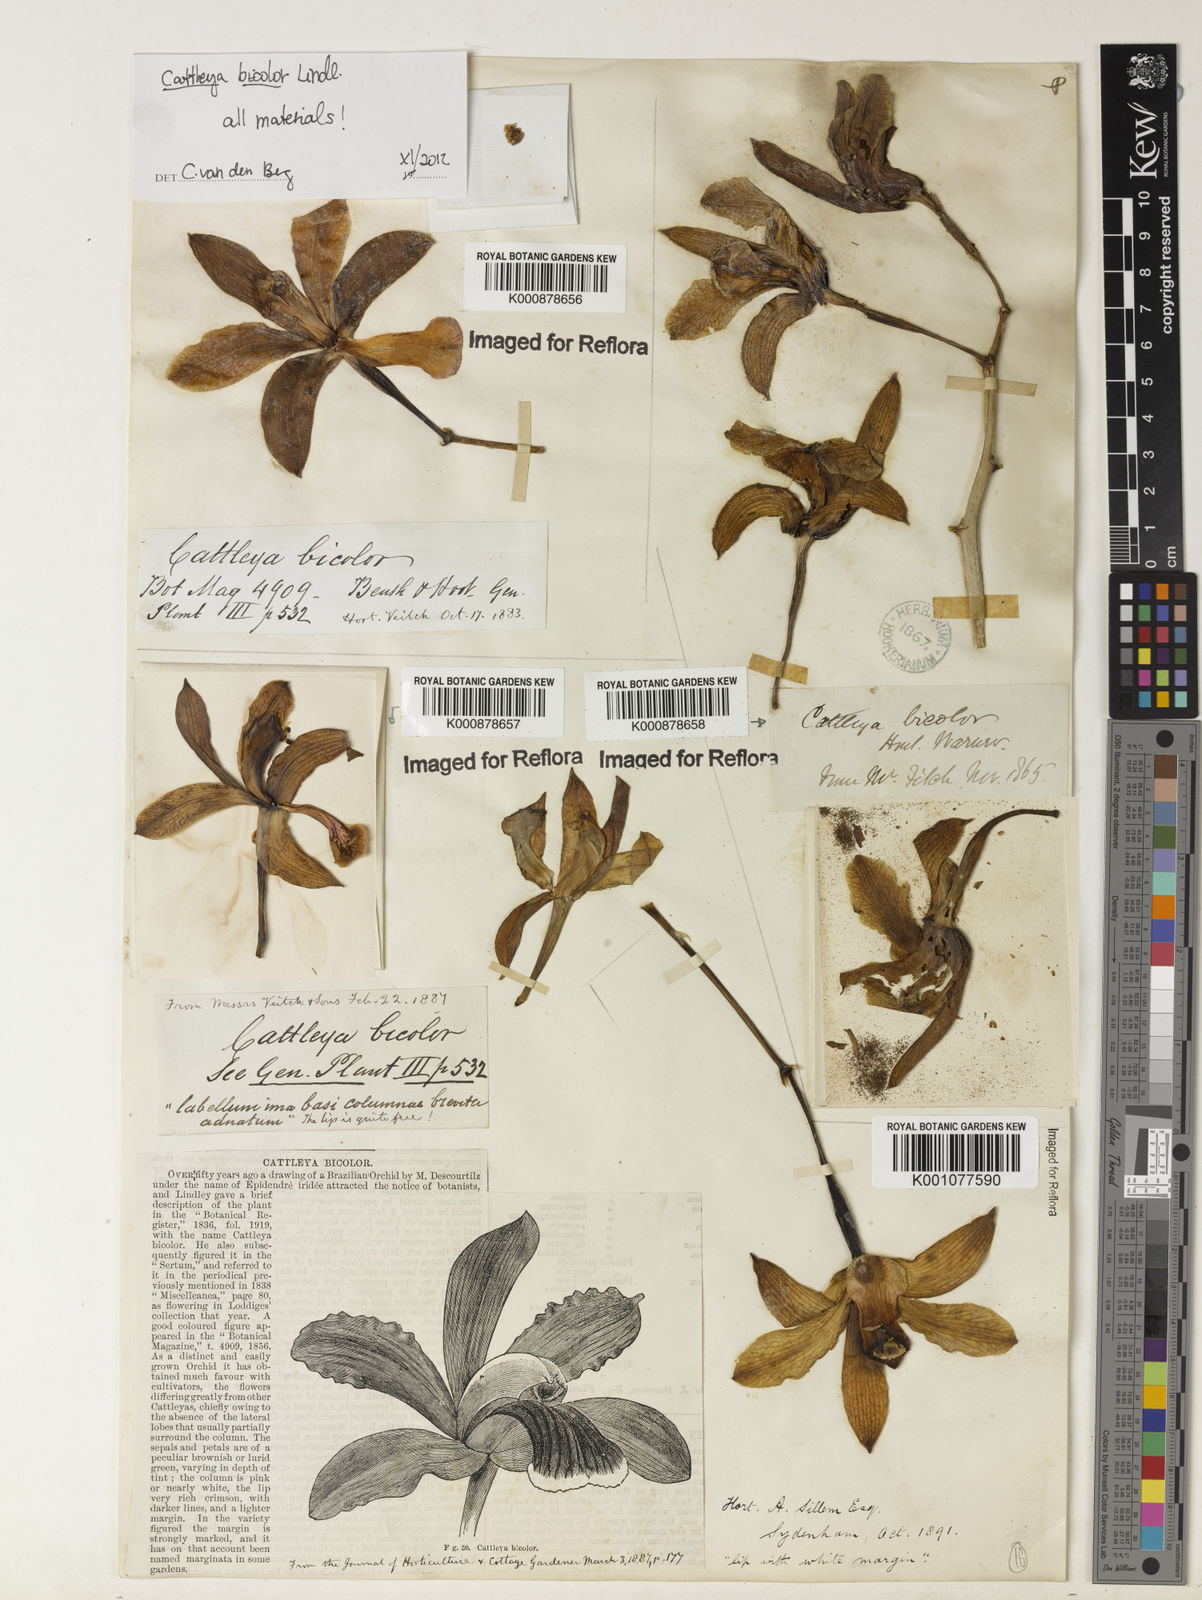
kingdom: Plantae
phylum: Tracheophyta
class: Liliopsida
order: Asparagales
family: Orchidaceae
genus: Cattleya
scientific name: Cattleya bicolor
